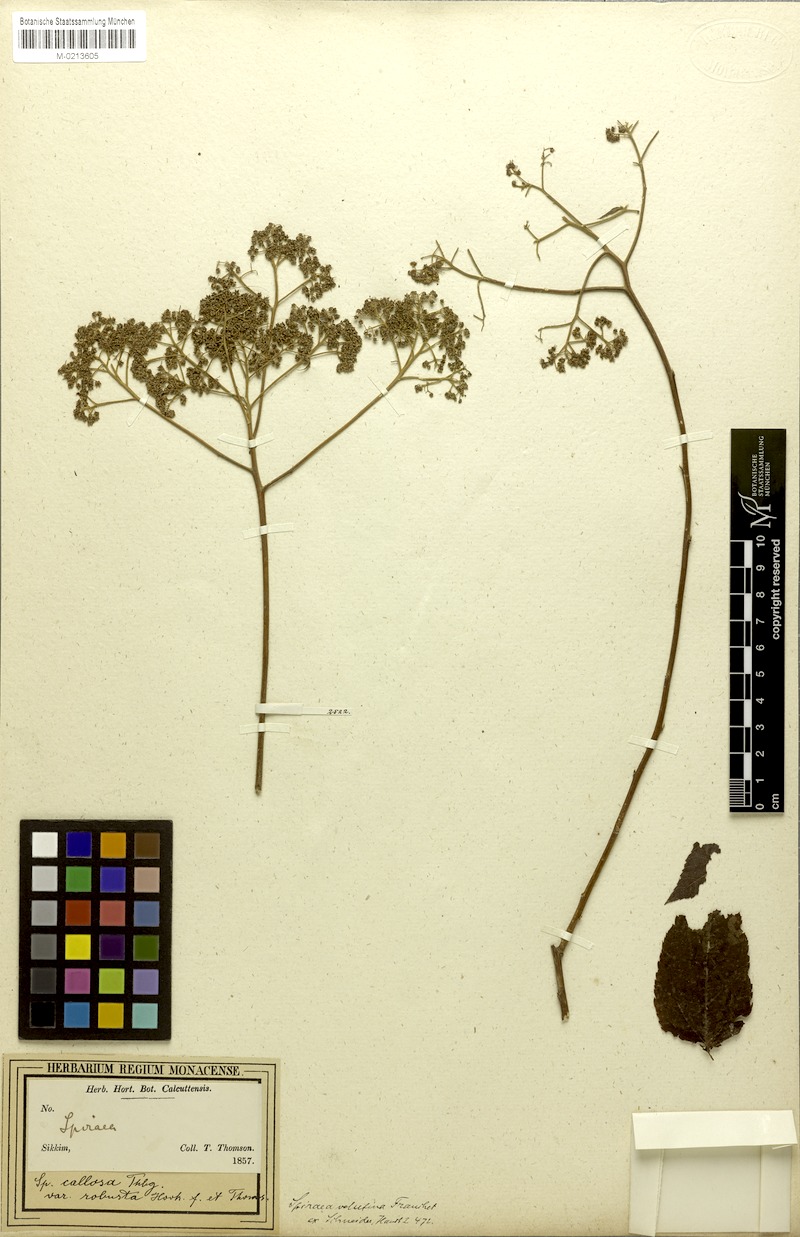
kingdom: Plantae
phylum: Tracheophyta
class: Magnoliopsida
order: Rosales
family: Rosaceae
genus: Spiraea
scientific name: Spiraea velutina
